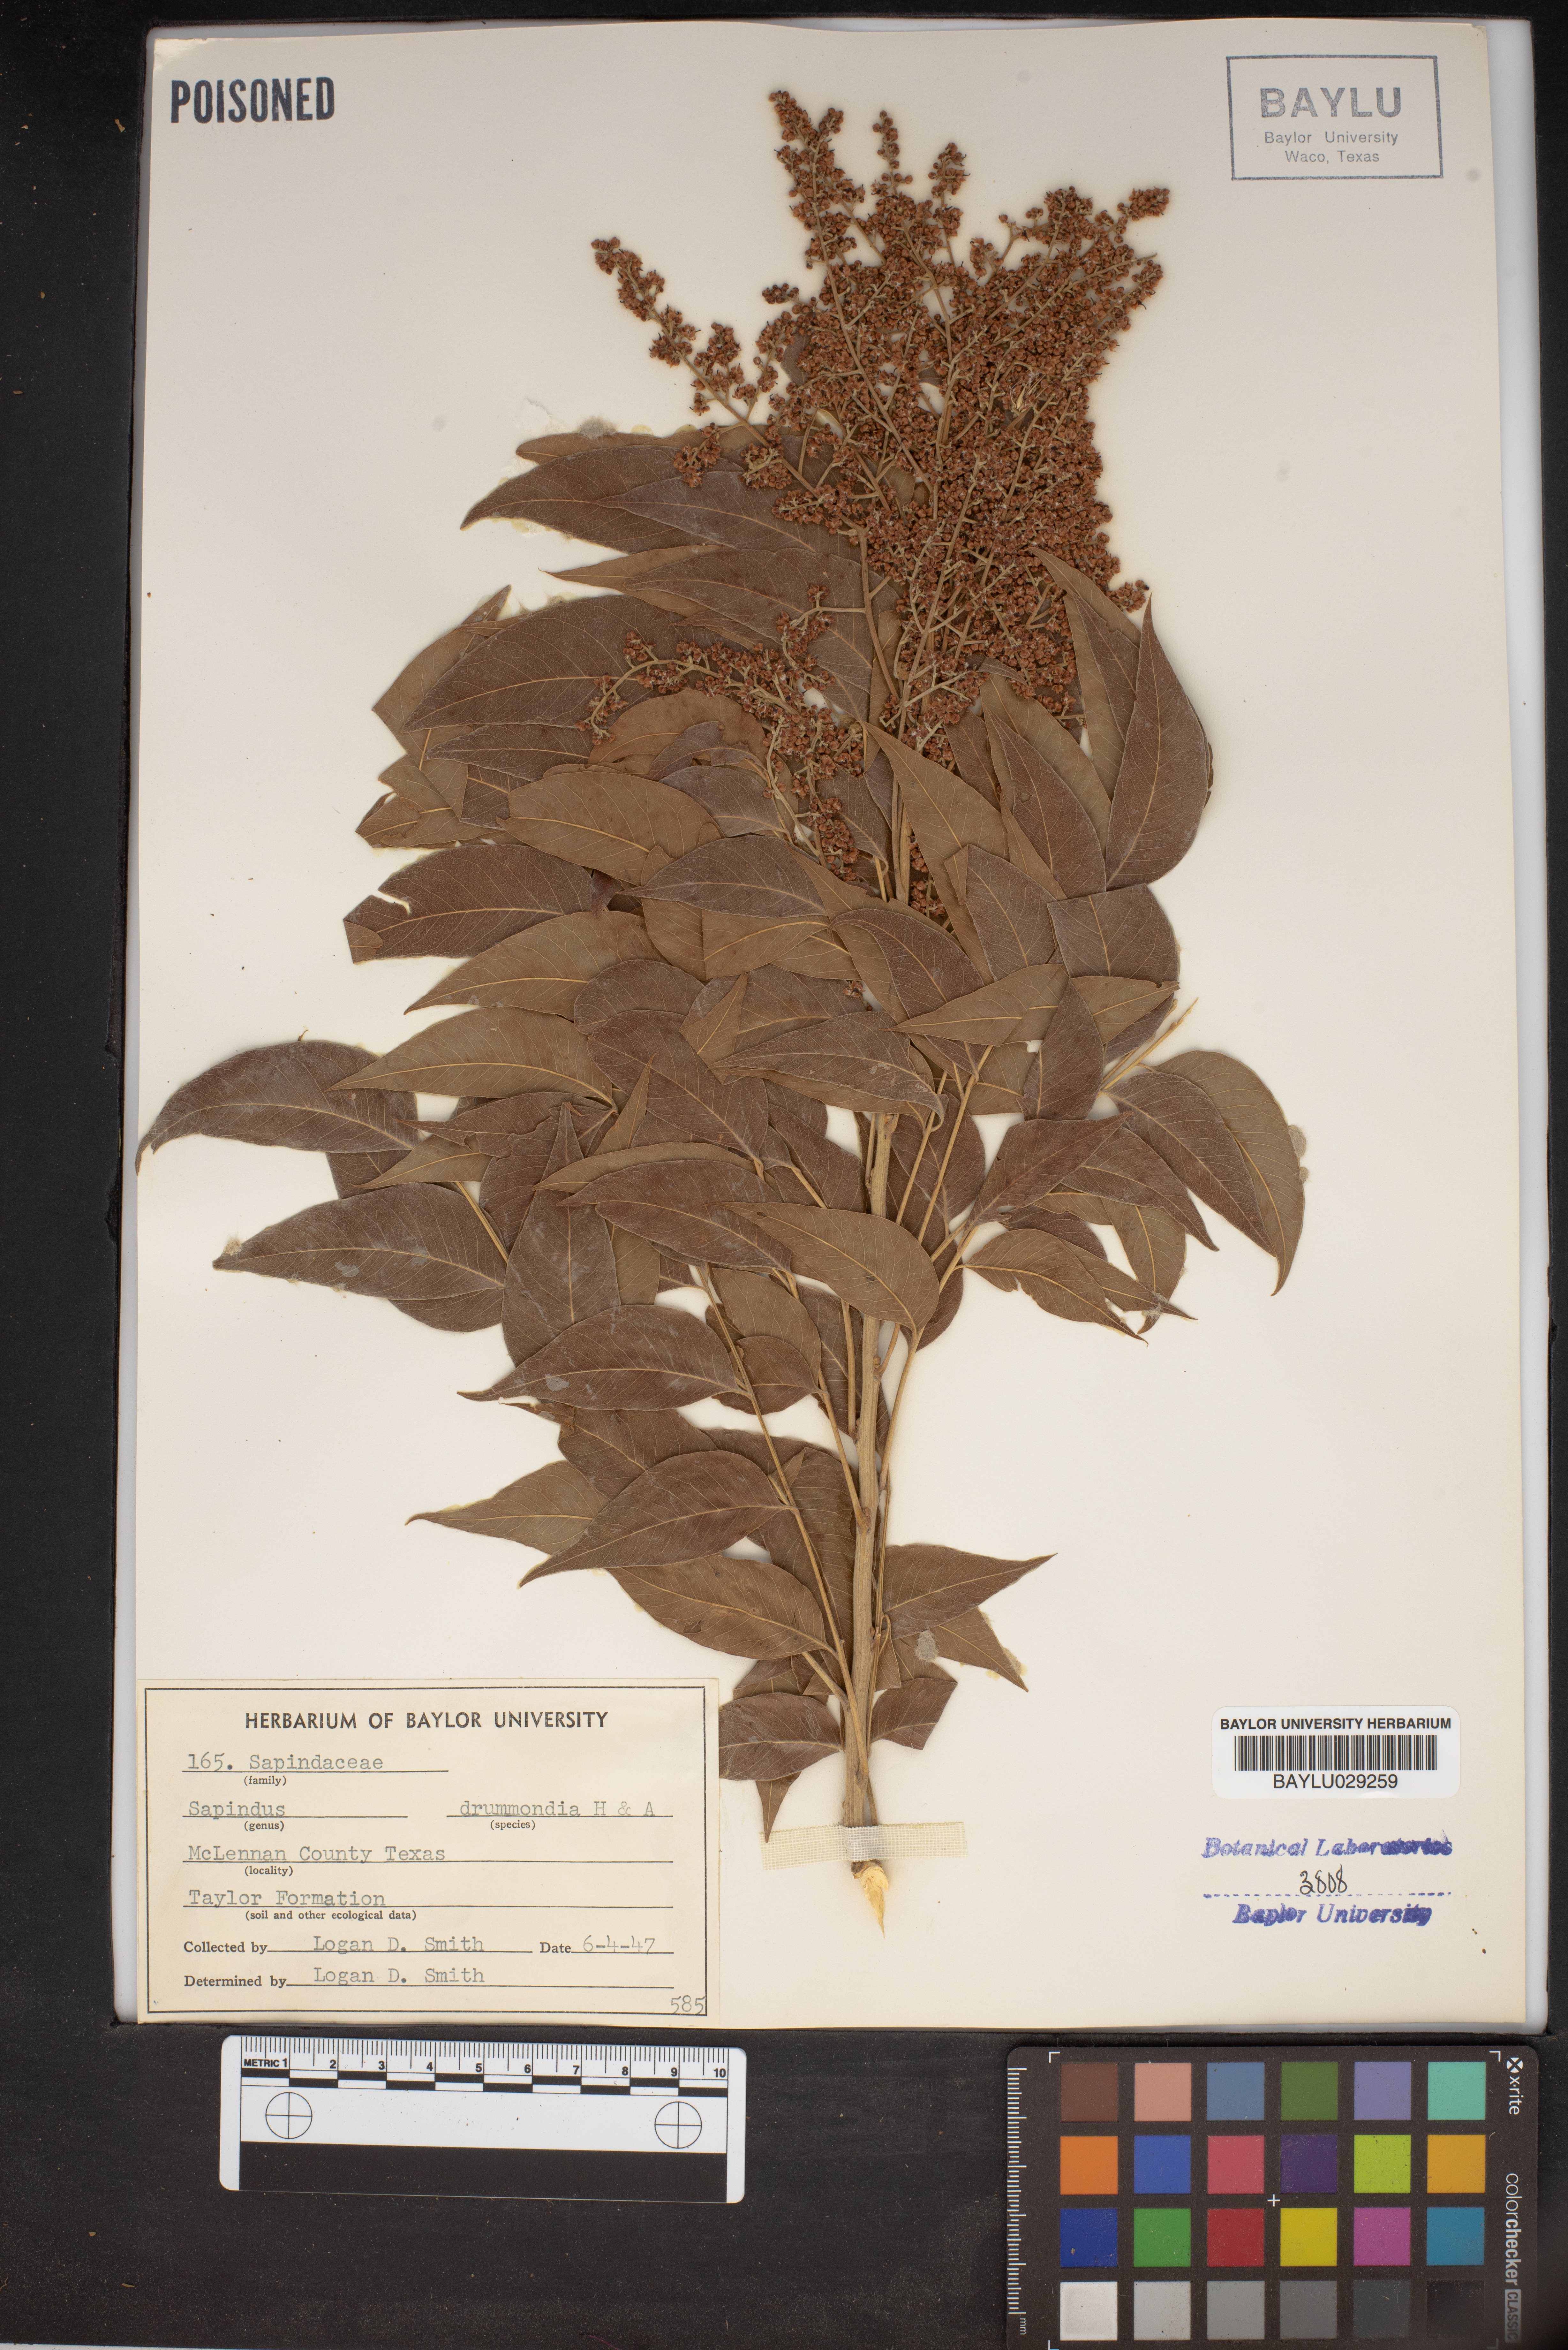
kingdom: Plantae
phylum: Tracheophyta
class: Magnoliopsida
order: Sapindales
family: Sapindaceae
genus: Sapindus
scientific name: Sapindus drummondii
